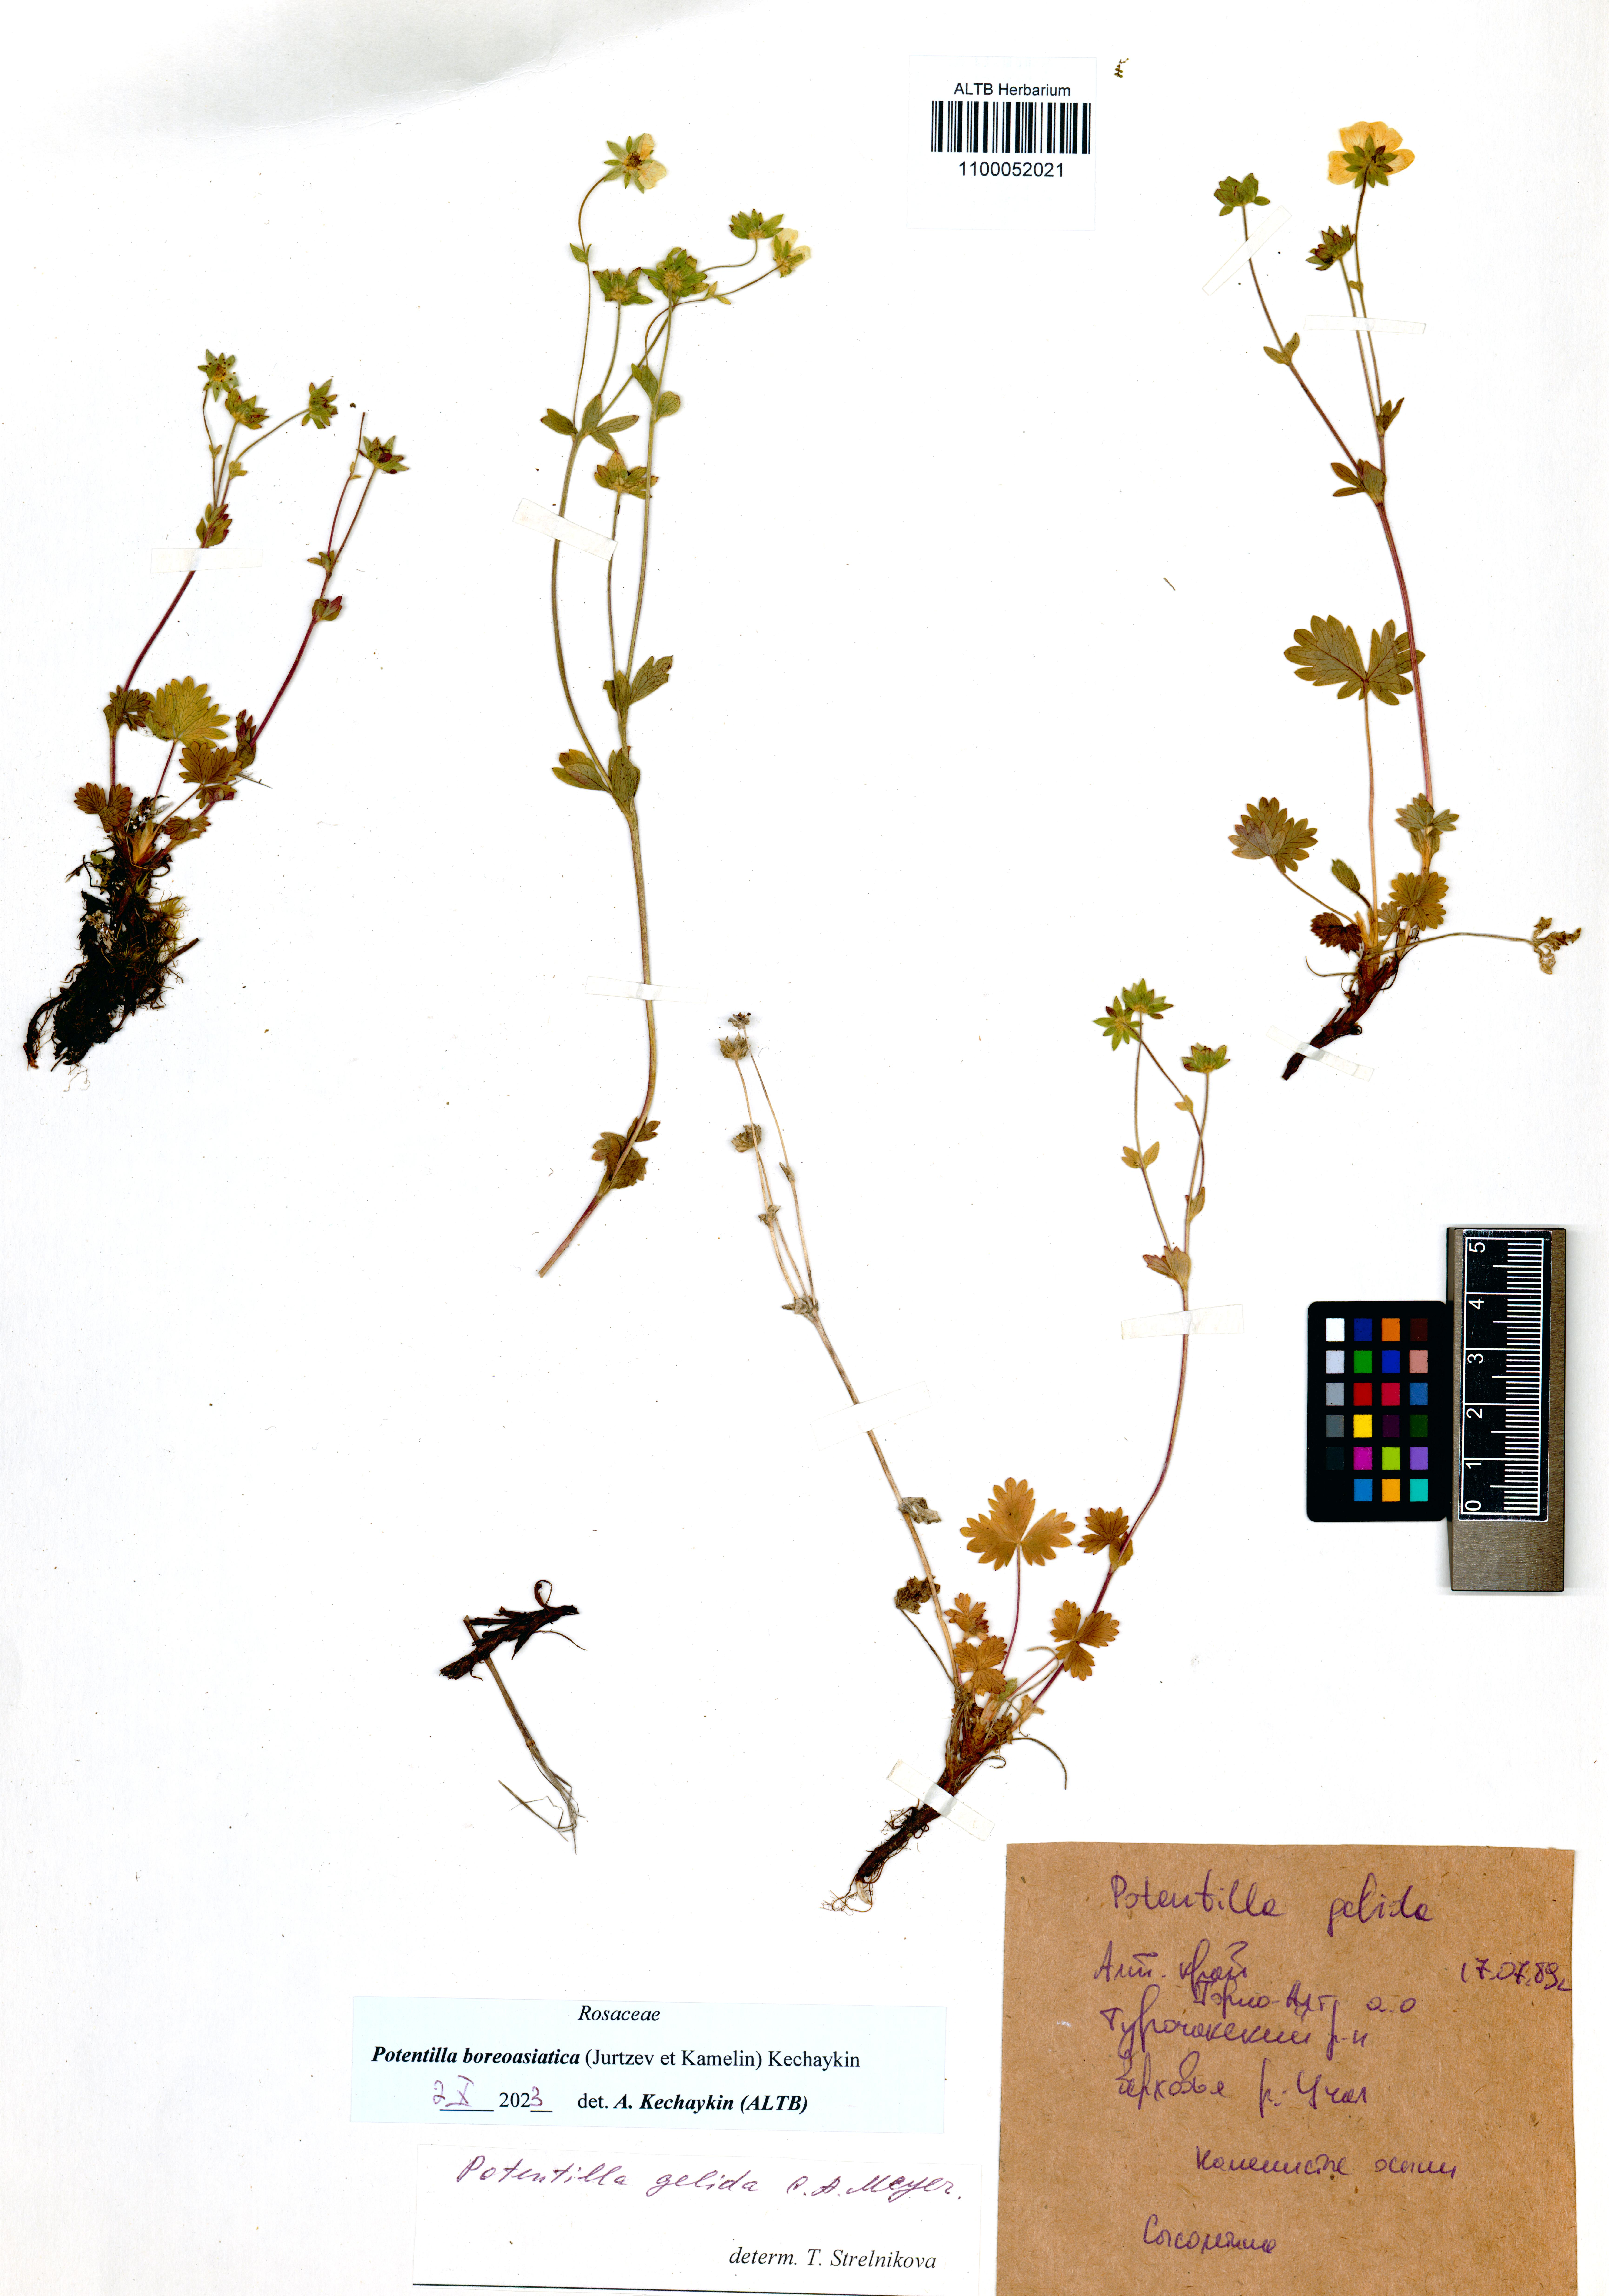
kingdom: Plantae
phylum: Tracheophyta
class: Magnoliopsida
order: Rosales
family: Rosaceae
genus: Potentilla
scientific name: Potentilla
